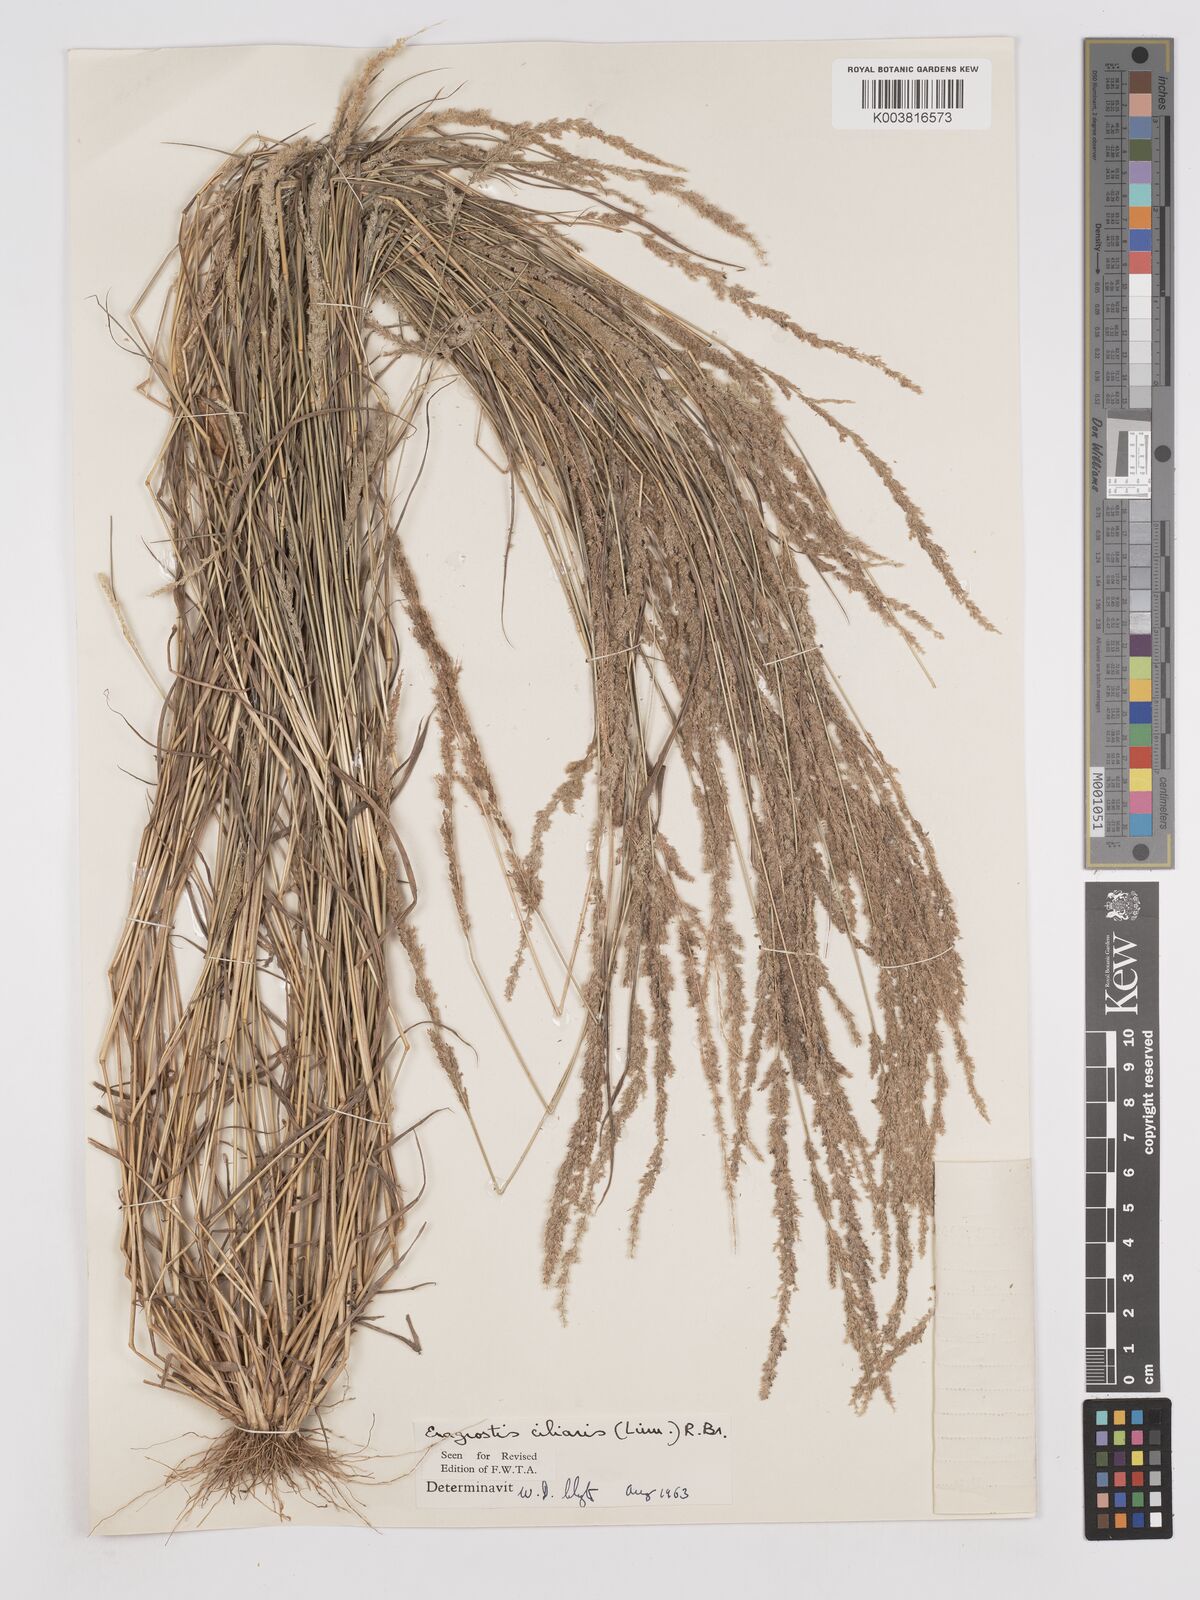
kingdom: Plantae
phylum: Tracheophyta
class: Liliopsida
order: Poales
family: Poaceae
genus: Eragrostis
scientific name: Eragrostis ciliaris
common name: Gophertail lovegrass
